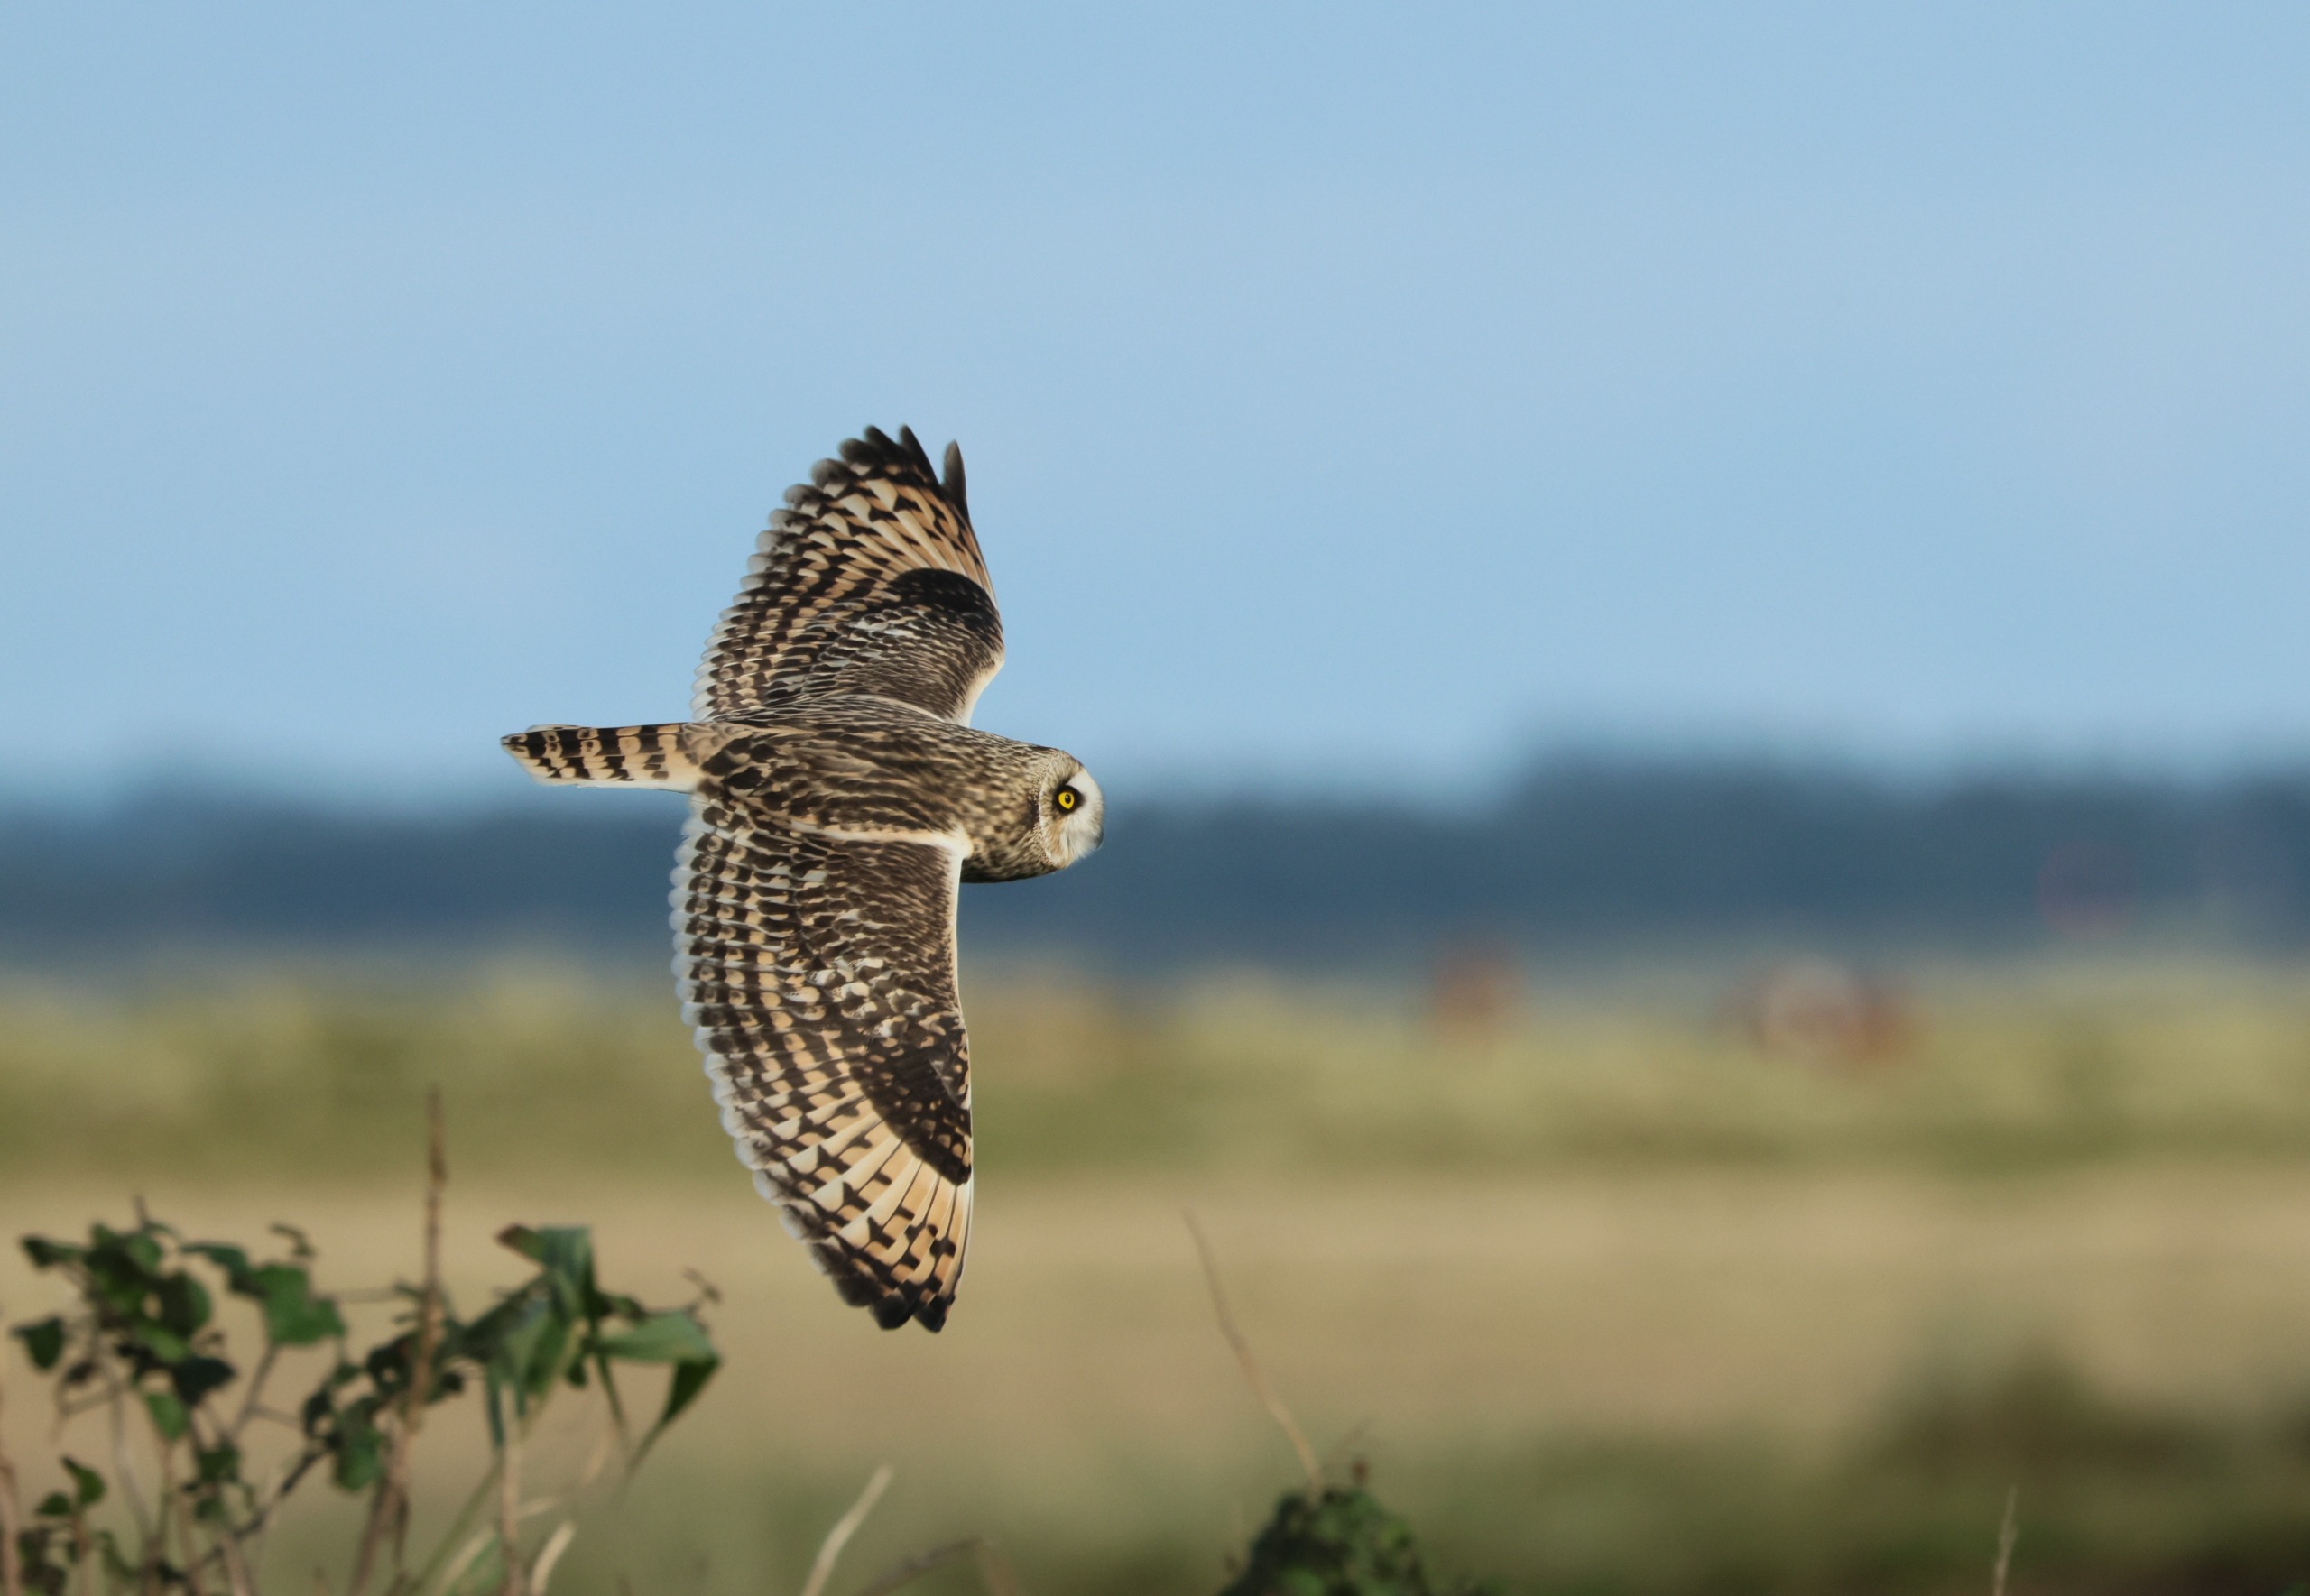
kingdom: Animalia
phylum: Chordata
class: Aves
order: Strigiformes
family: Strigidae
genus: Asio
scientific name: Asio flammeus
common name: Mosehornugle
